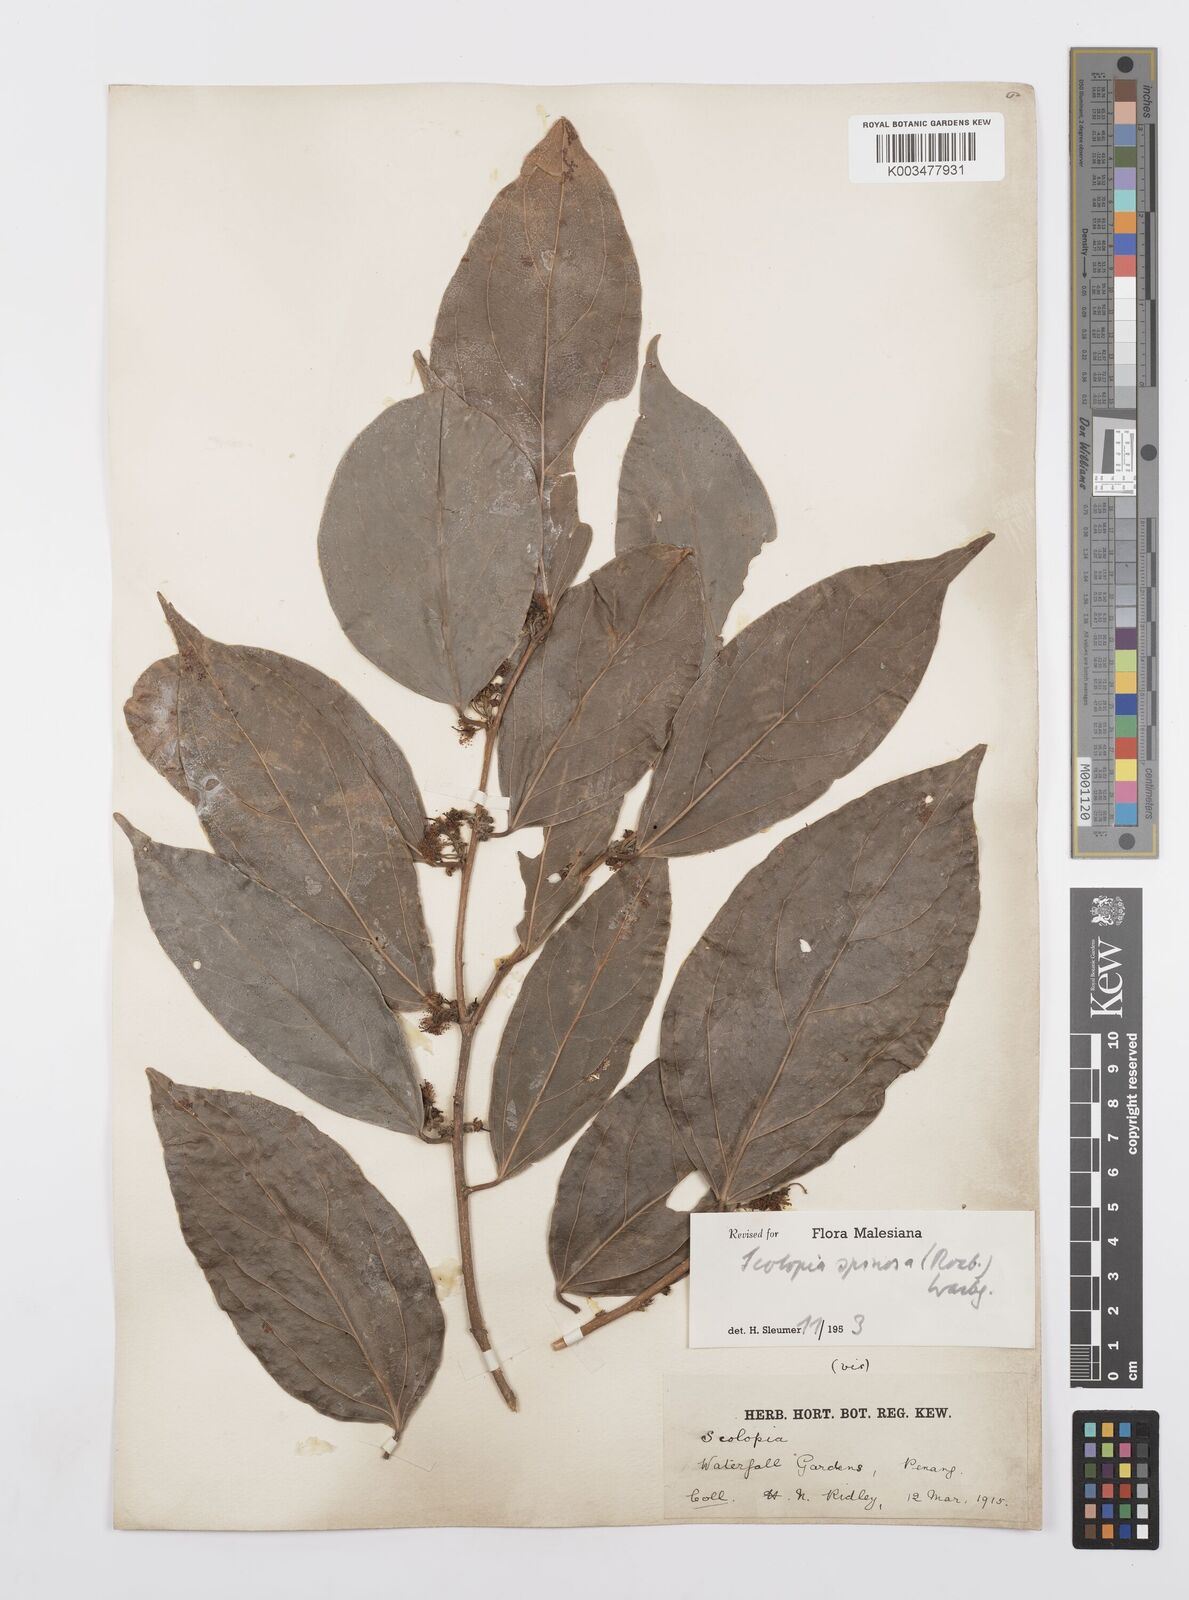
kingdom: Plantae
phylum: Tracheophyta
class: Magnoliopsida
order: Malpighiales
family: Salicaceae
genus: Scolopia
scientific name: Scolopia spinosa
